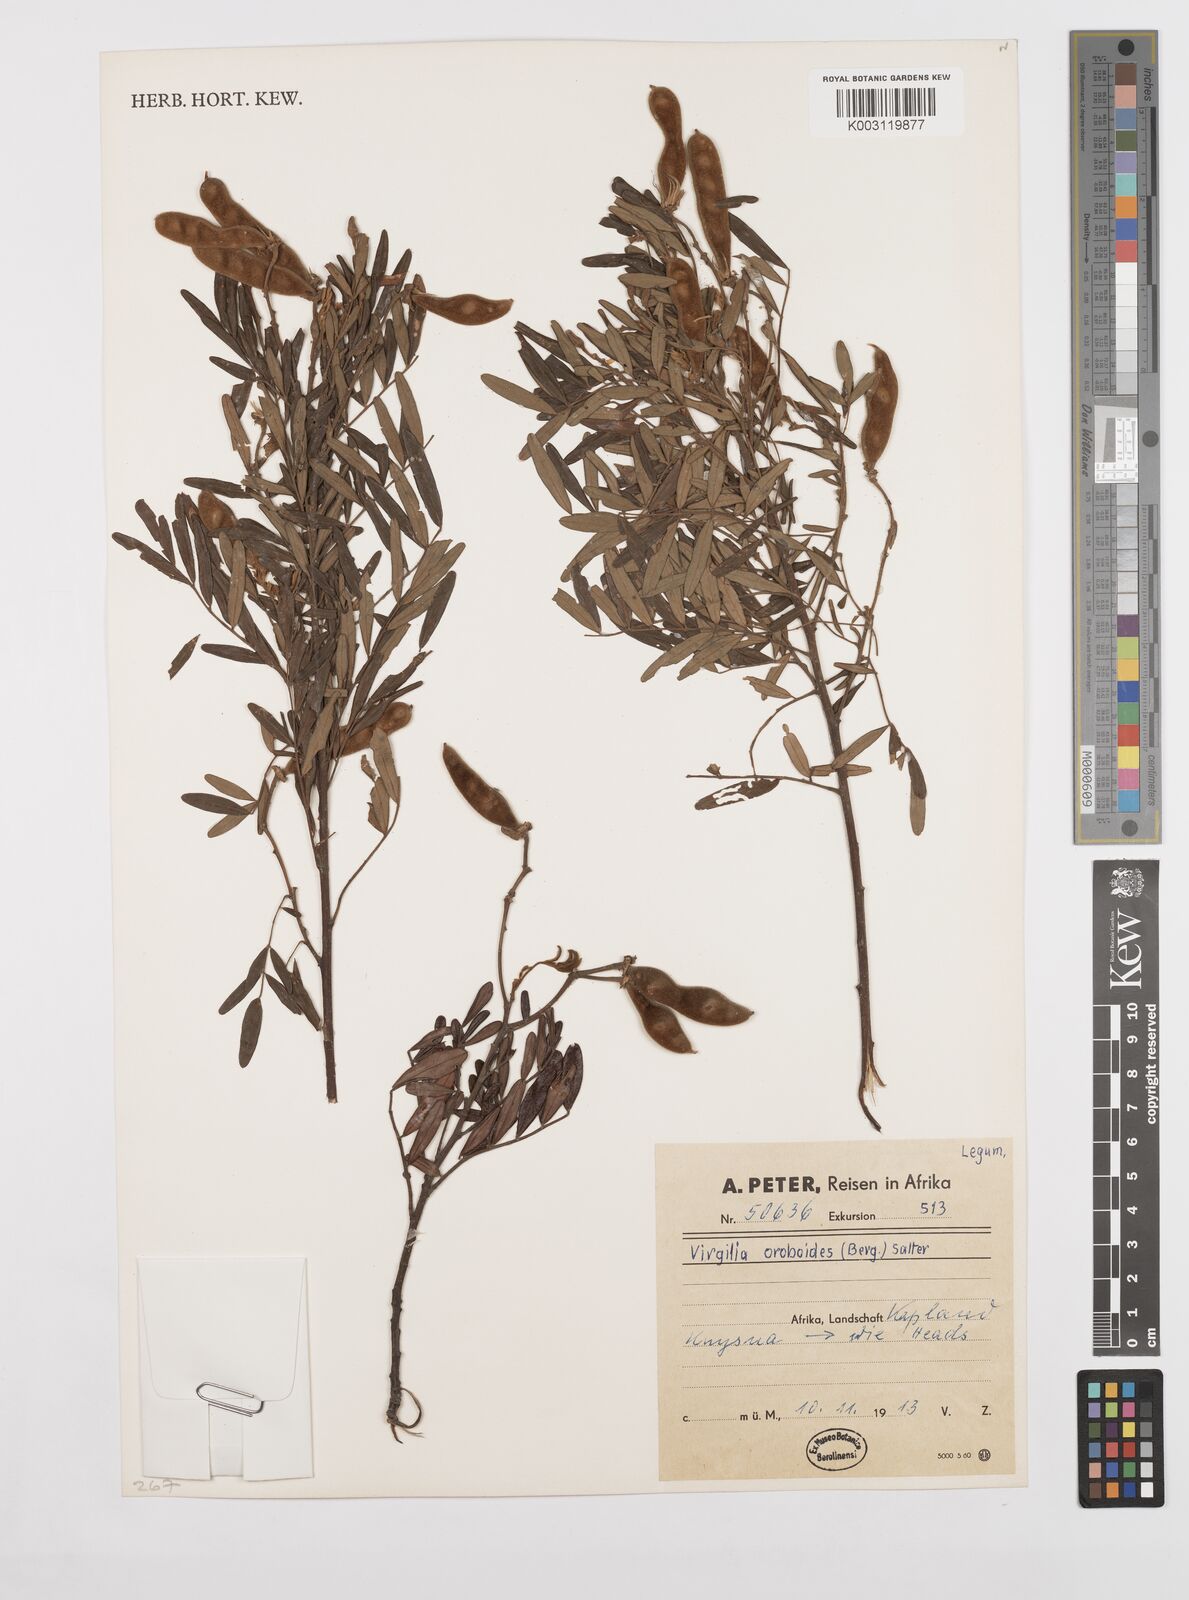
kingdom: Plantae
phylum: Tracheophyta
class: Magnoliopsida
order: Fabales
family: Fabaceae
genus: Virgilia
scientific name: Virgilia oroboides
